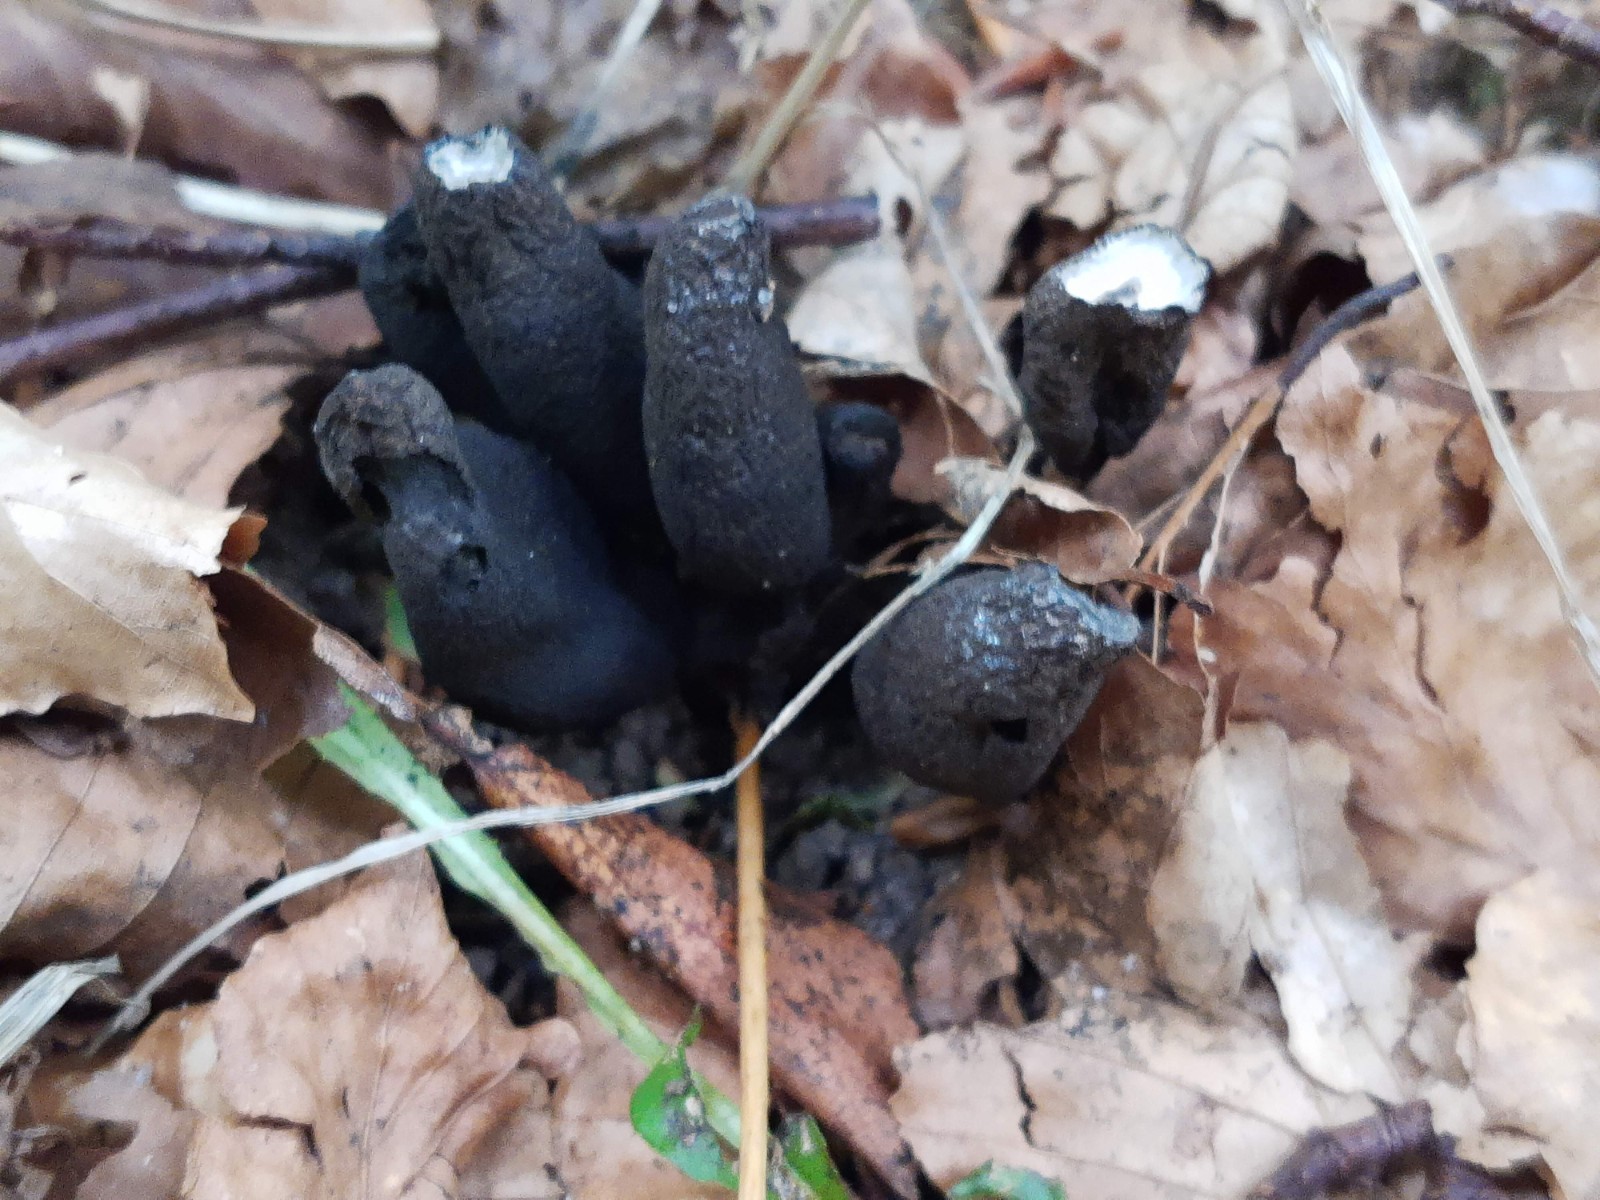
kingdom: Fungi
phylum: Ascomycota
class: Sordariomycetes
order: Xylariales
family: Xylariaceae
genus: Xylaria
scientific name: Xylaria polymorpha
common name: kølle-stødsvamp
